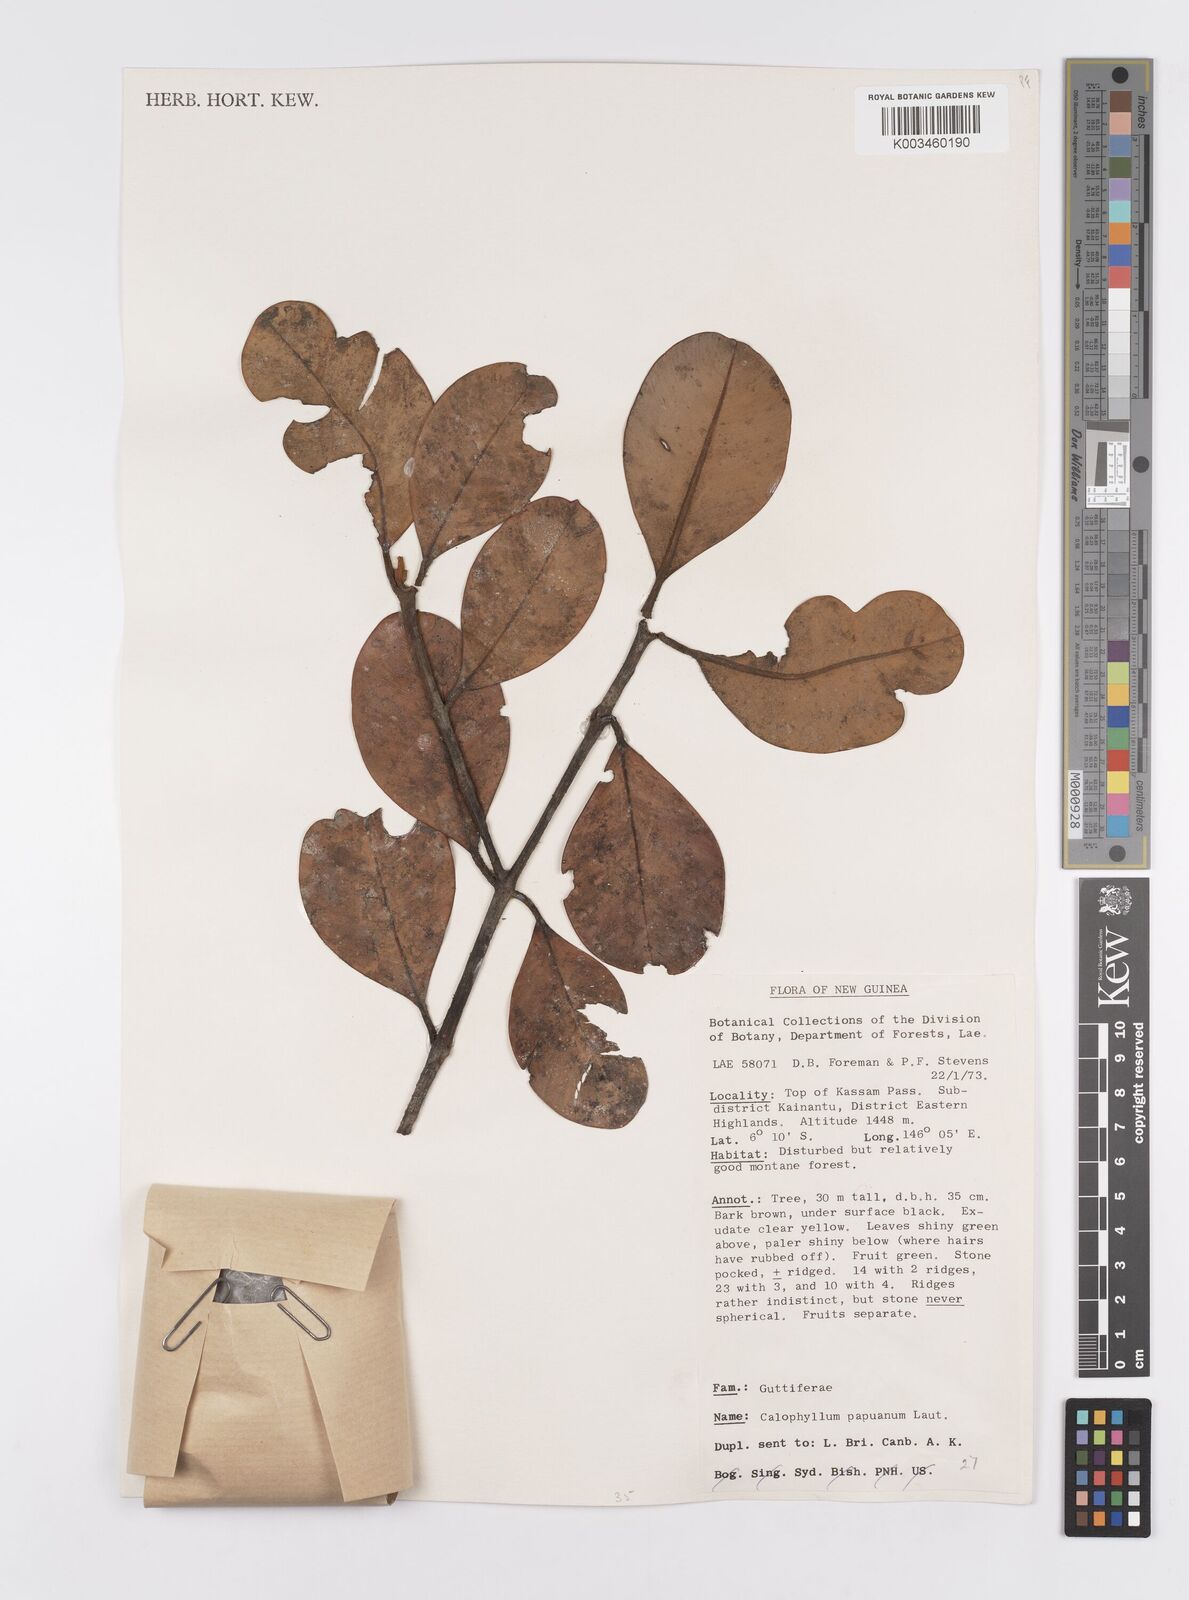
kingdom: Plantae
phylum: Tracheophyta
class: Magnoliopsida
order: Malpighiales
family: Calophyllaceae
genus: Calophyllum
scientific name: Calophyllum papuanum
